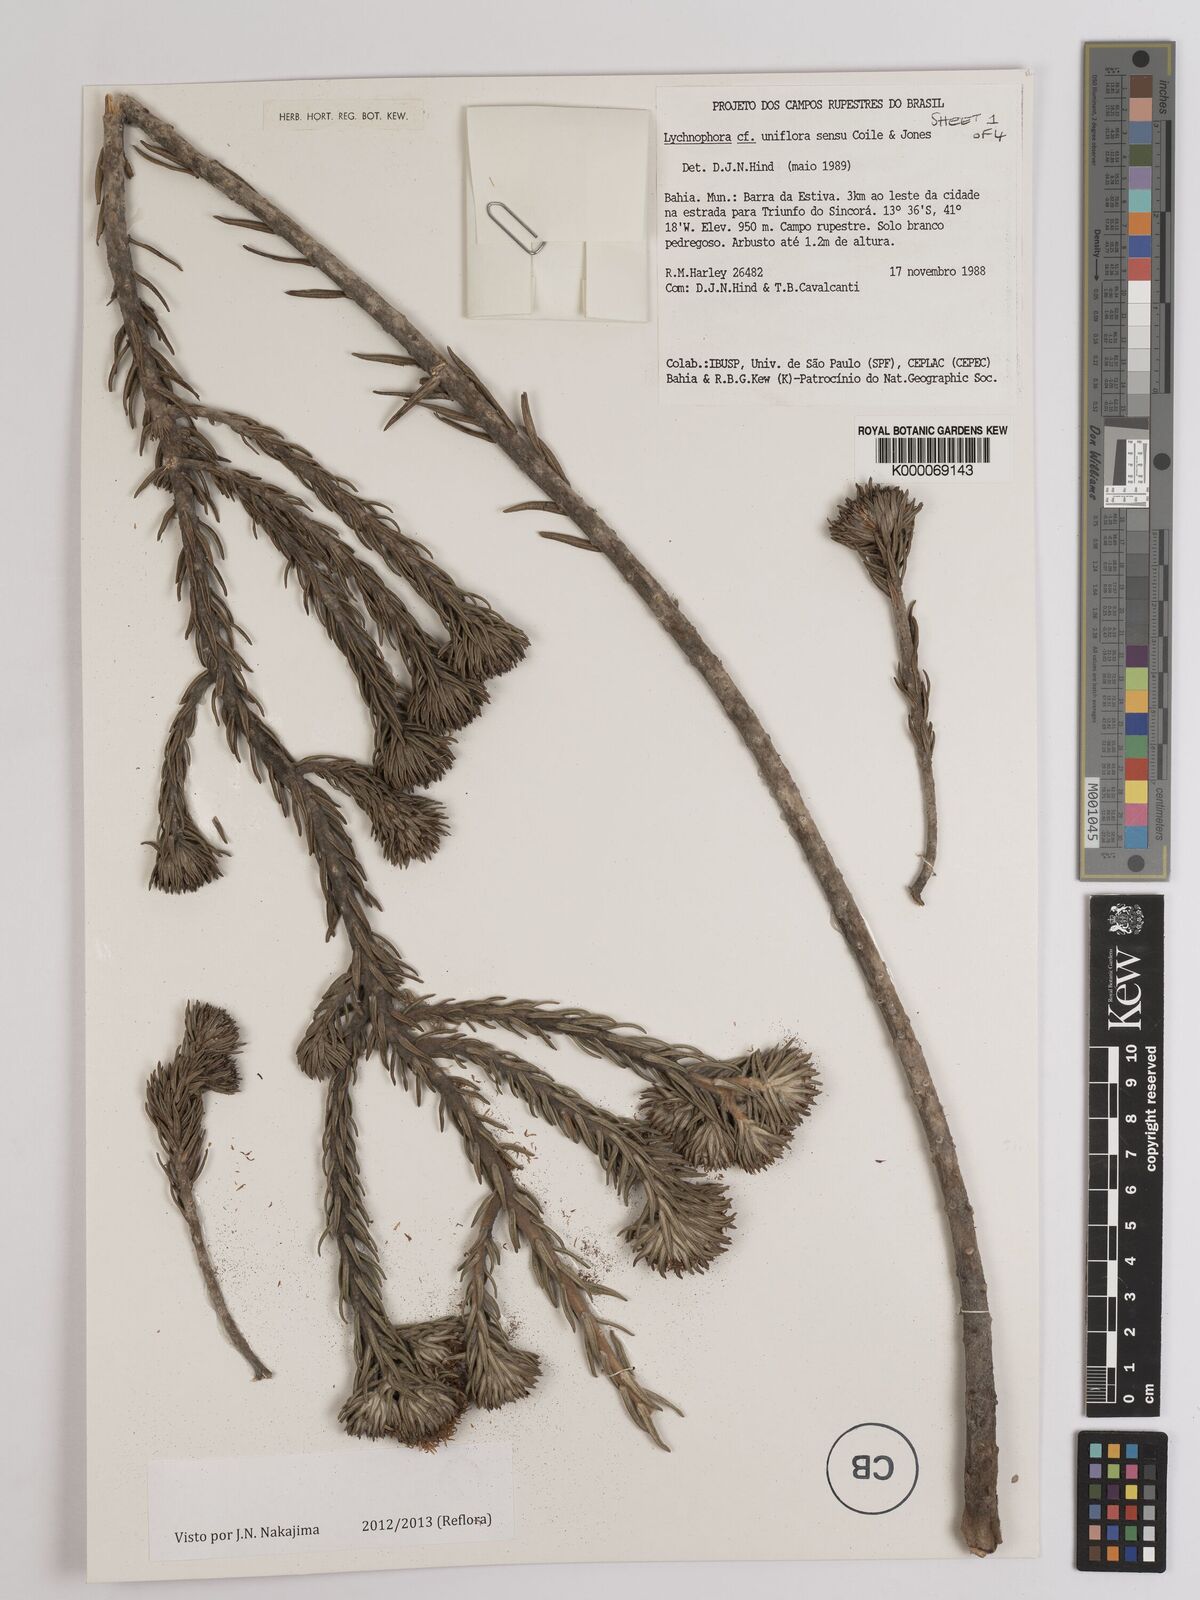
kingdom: Plantae
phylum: Tracheophyta
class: Magnoliopsida
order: Asterales
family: Asteraceae
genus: Lychnophora
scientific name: Lychnophora uniflora
